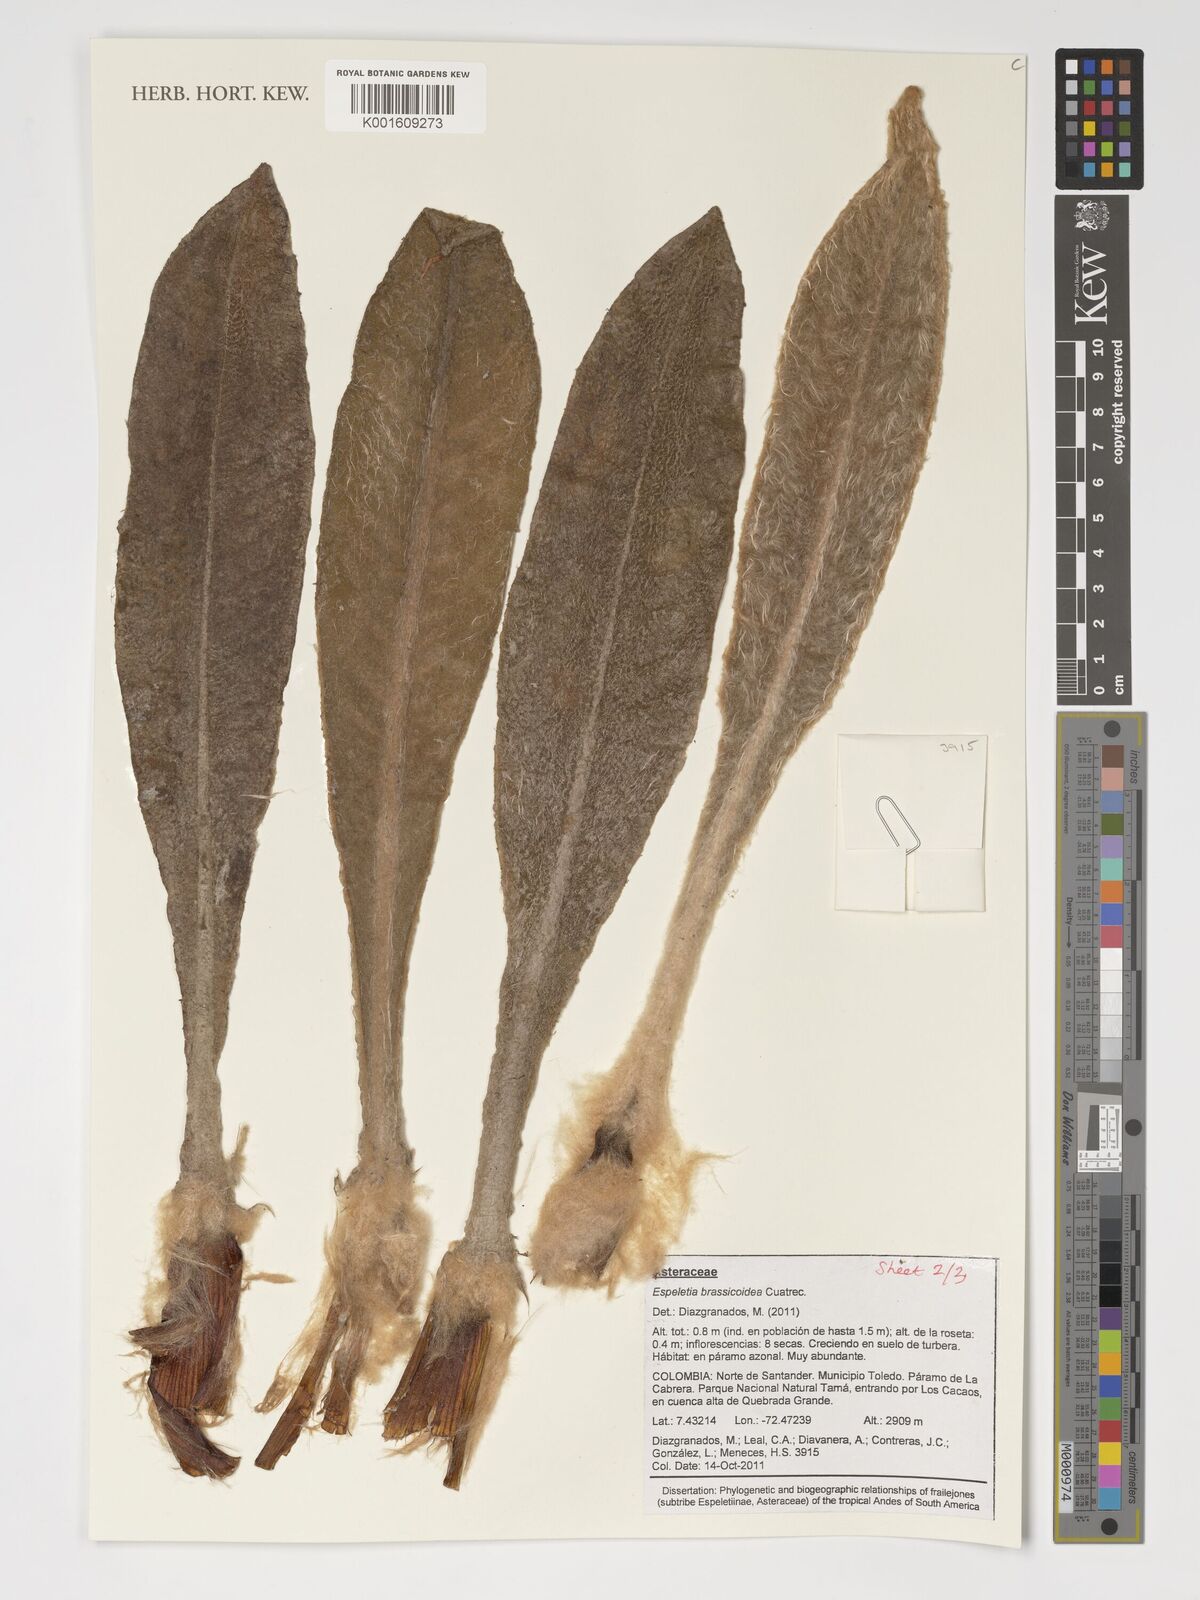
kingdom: Plantae
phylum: Tracheophyta
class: Magnoliopsida
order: Asterales
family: Asteraceae
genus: Espeletia
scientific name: Espeletia brassicoidea
